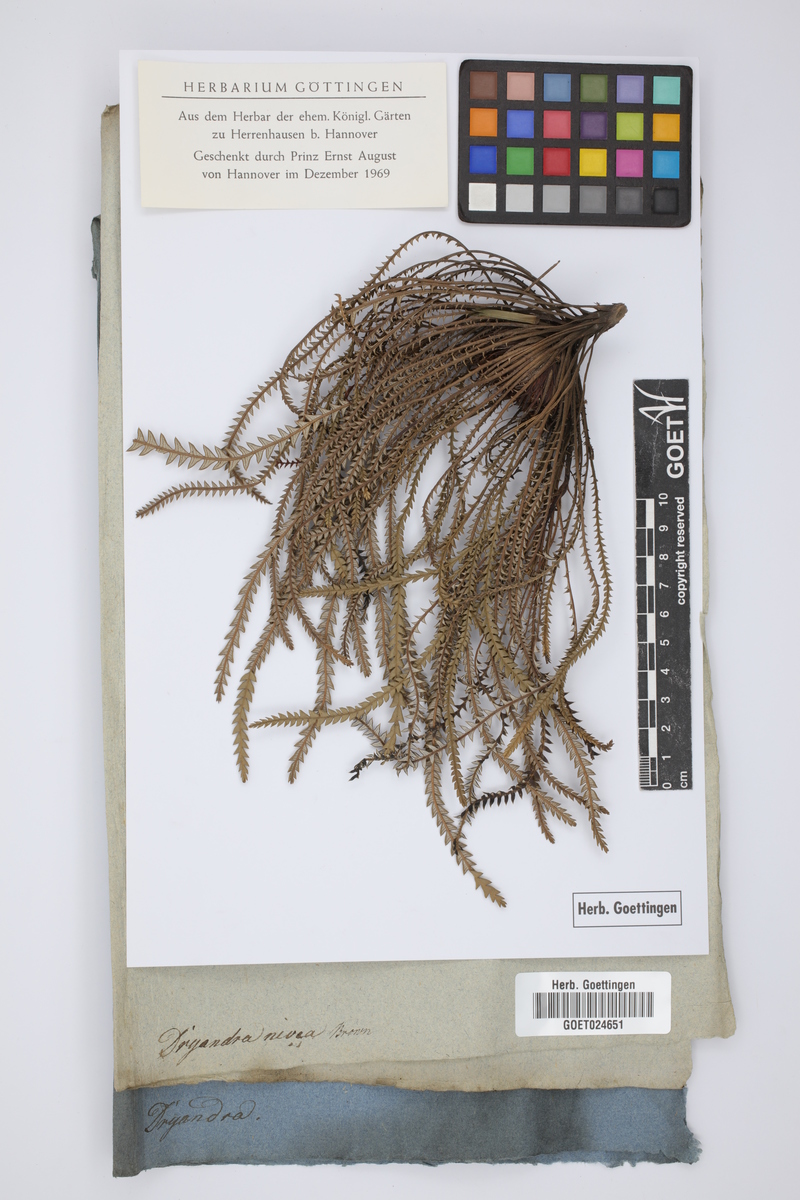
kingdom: Plantae
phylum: Tracheophyta
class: Magnoliopsida
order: Proteales
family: Proteaceae
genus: Banksia
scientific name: Banksia nivea
